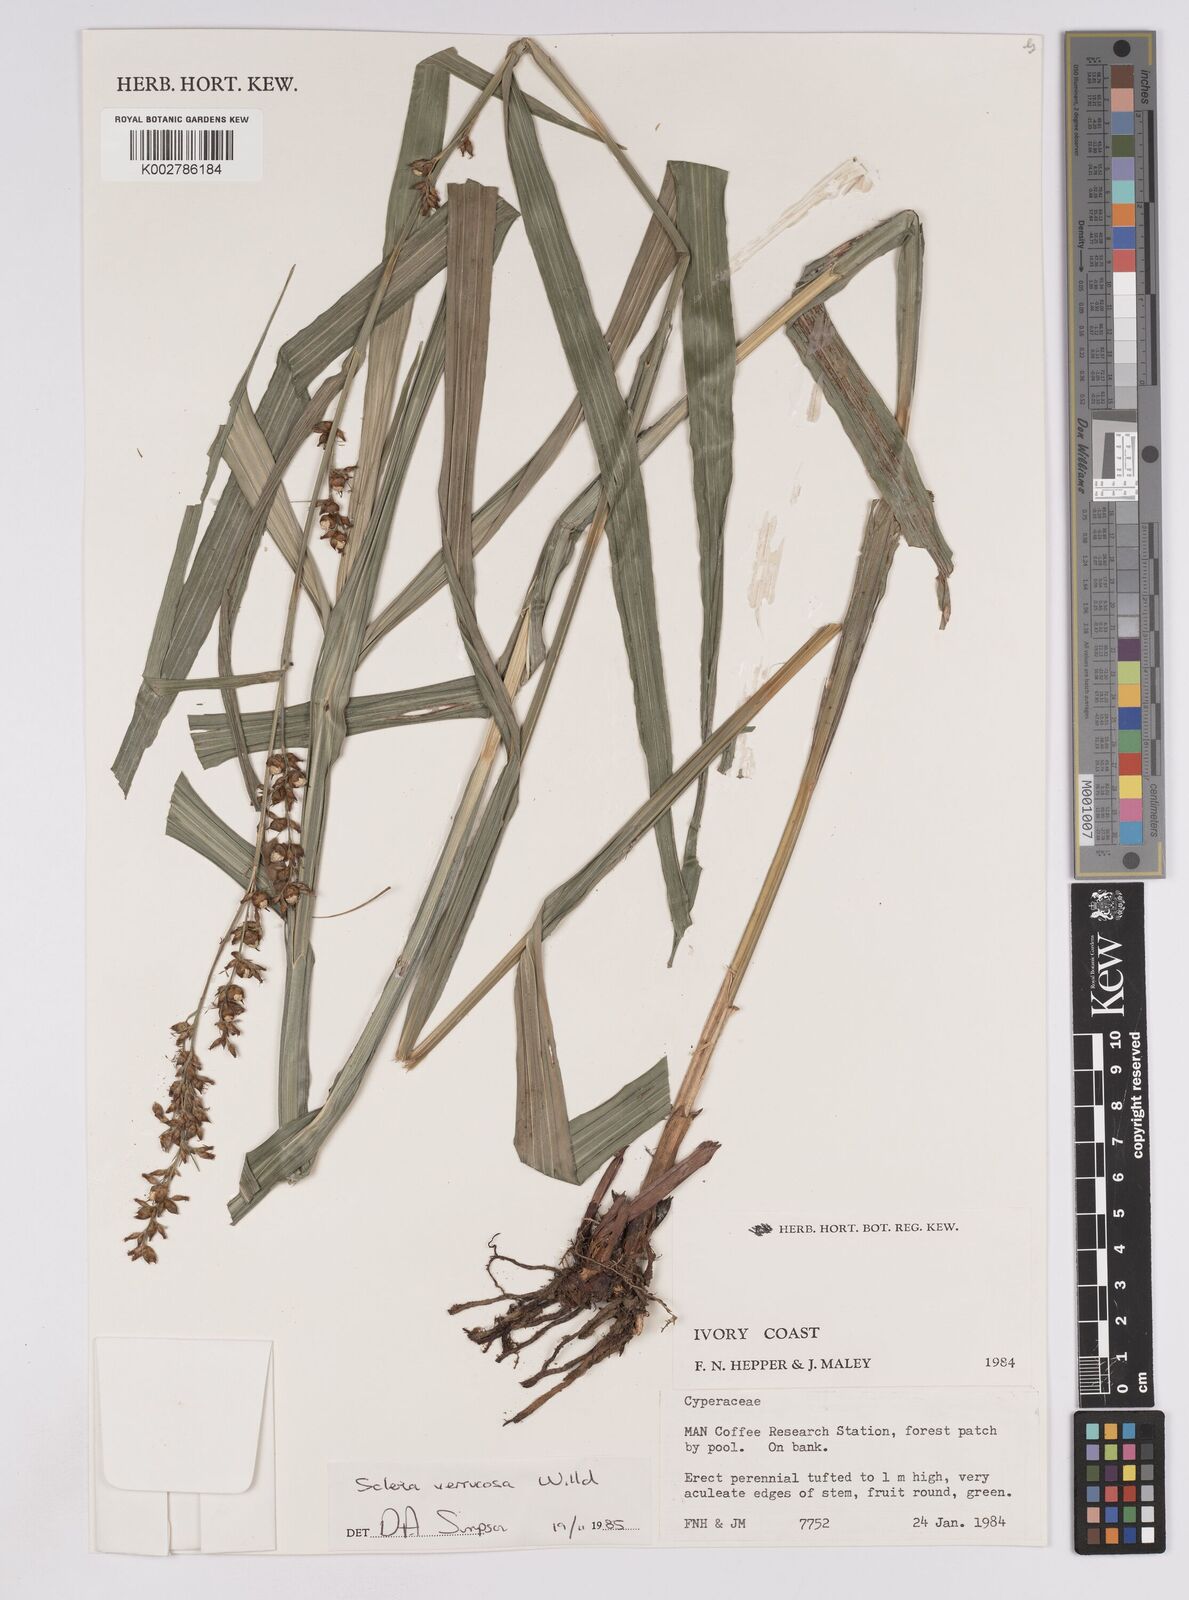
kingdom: Plantae
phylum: Tracheophyta
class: Liliopsida
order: Poales
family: Cyperaceae
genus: Scleria
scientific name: Scleria verrucosa
